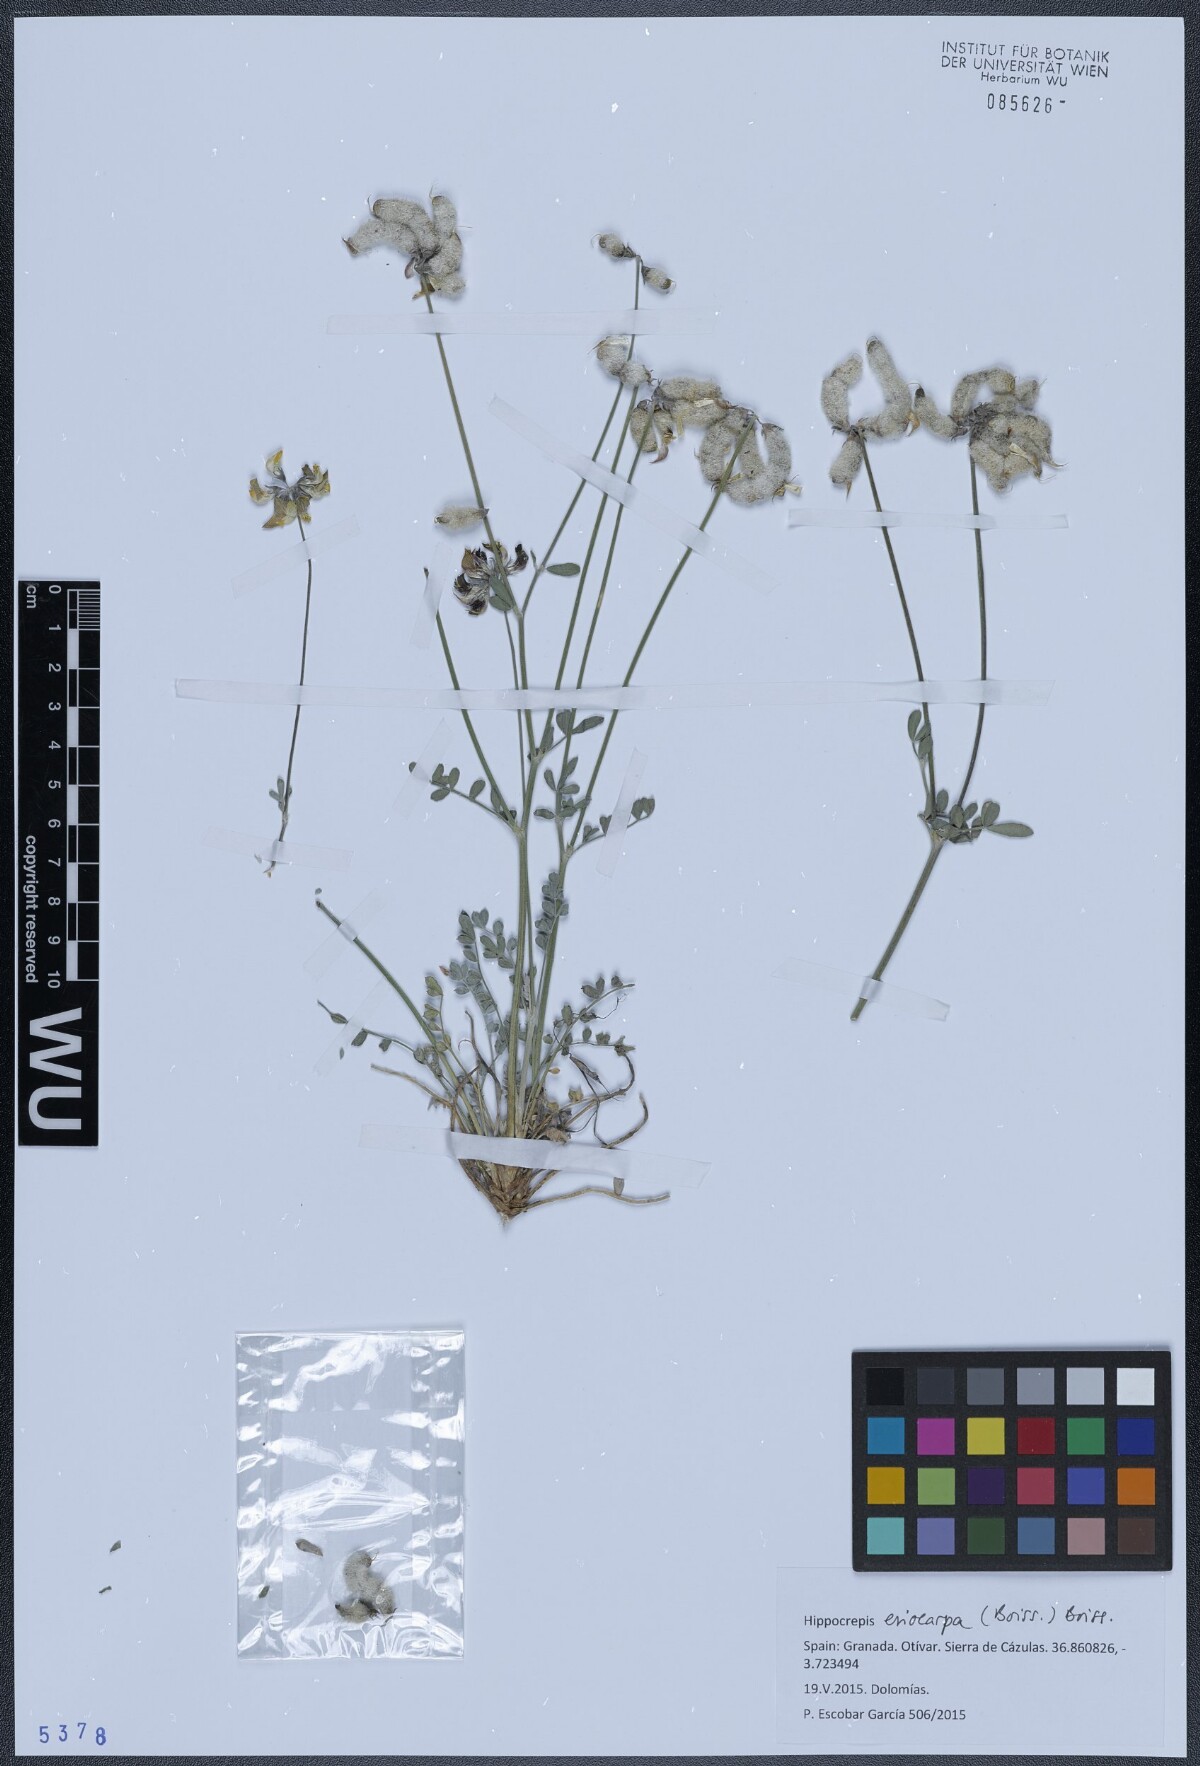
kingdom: Plantae
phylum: Tracheophyta
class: Magnoliopsida
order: Fabales
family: Fabaceae
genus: Hippocrepis
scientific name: Hippocrepis eriocarpa
